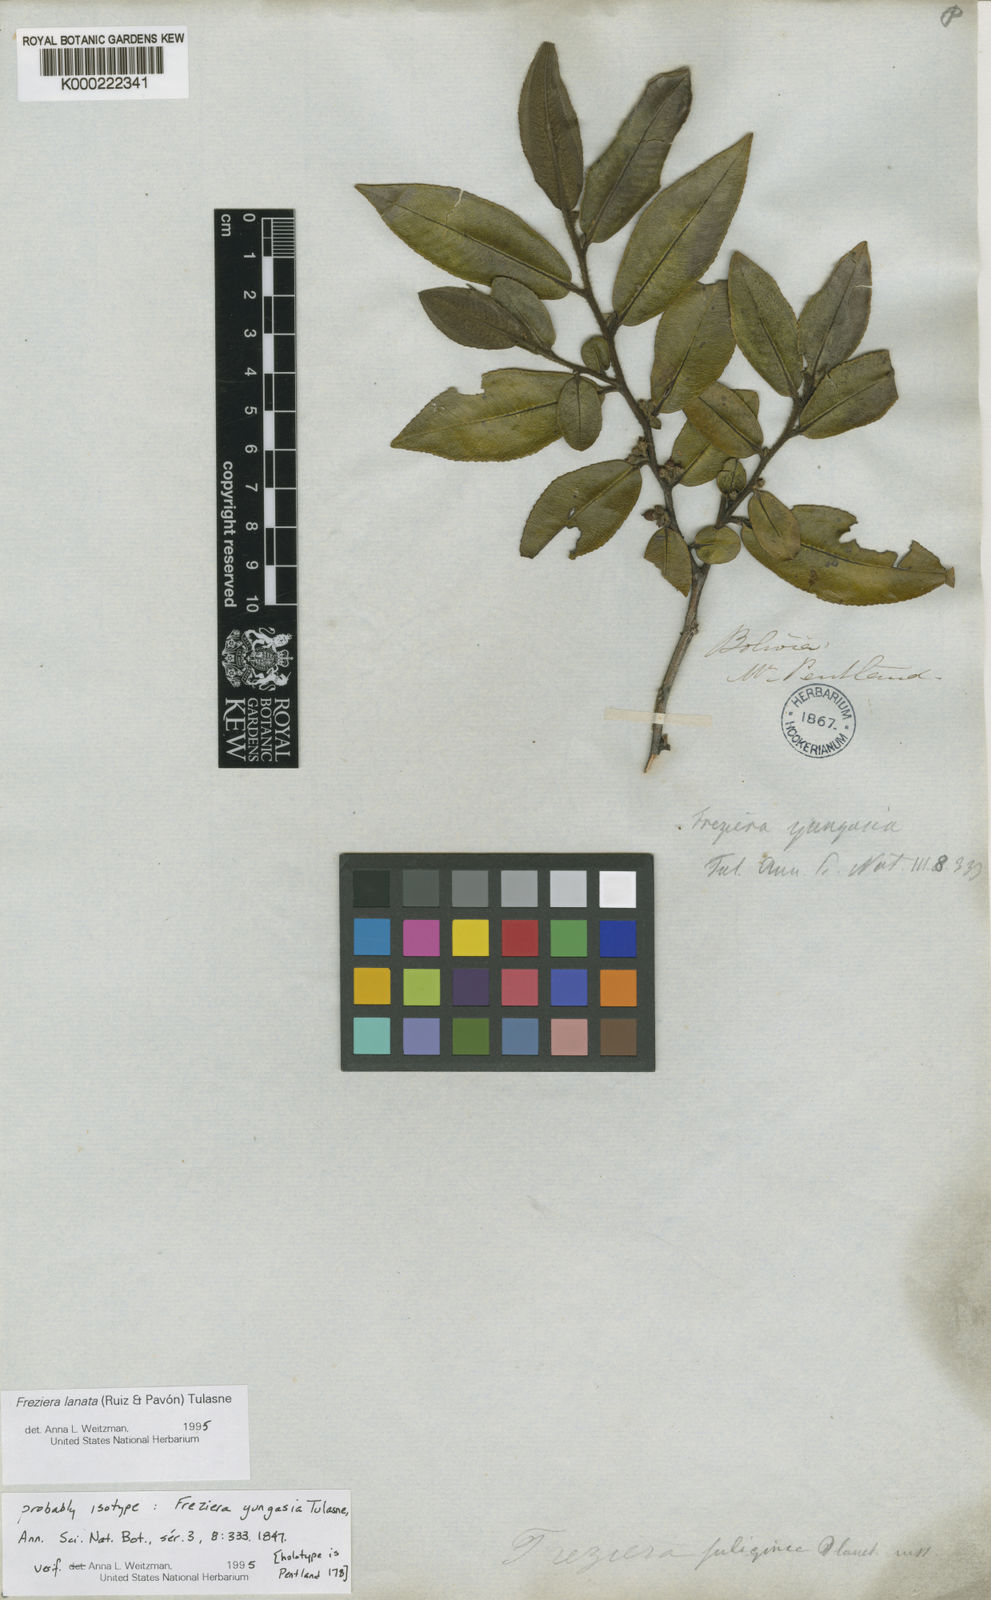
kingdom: Plantae
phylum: Tracheophyta
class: Magnoliopsida
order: Ericales
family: Pentaphylacaceae
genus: Freziera
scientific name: Freziera lanata
